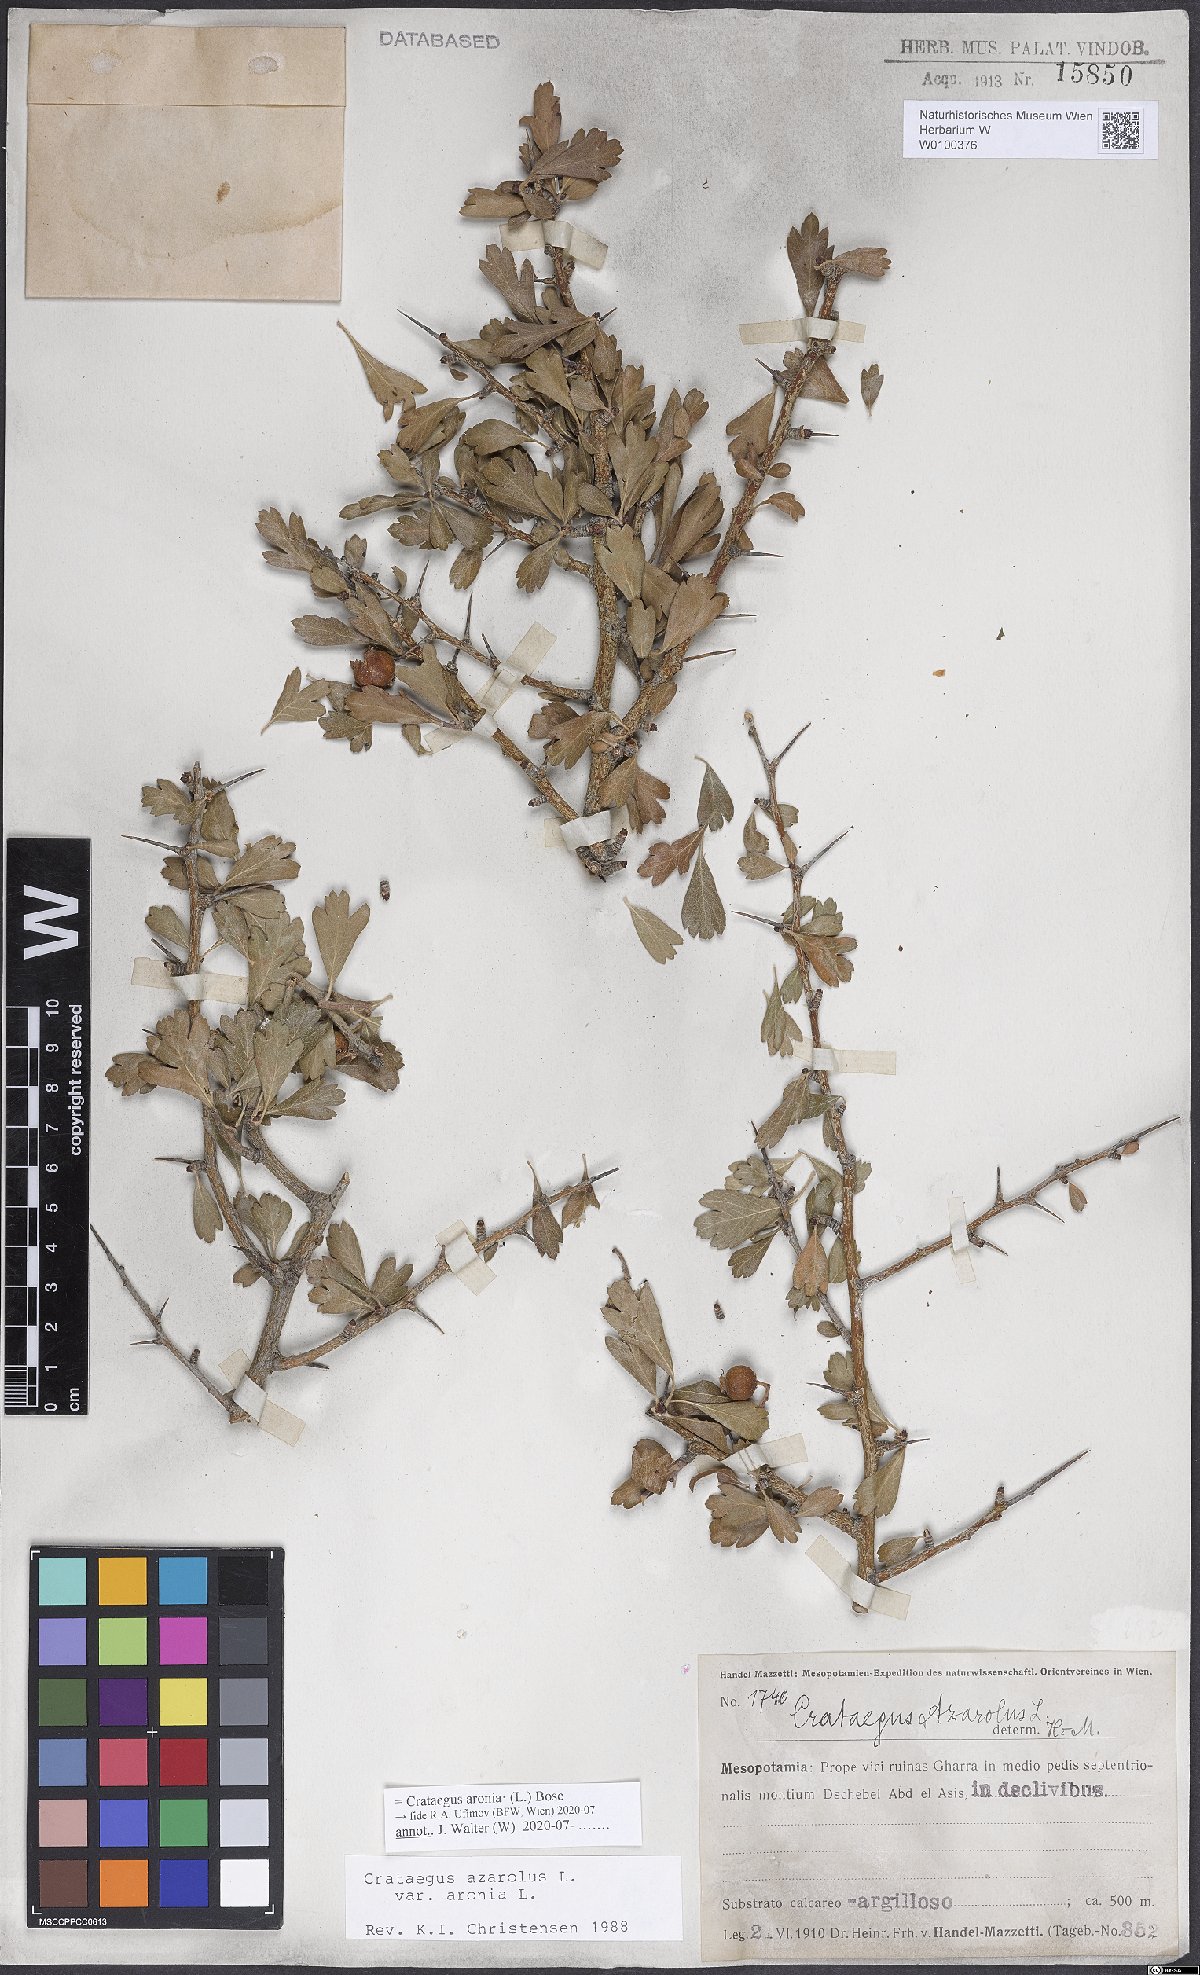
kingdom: Plantae
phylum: Tracheophyta
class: Magnoliopsida
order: Rosales
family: Rosaceae
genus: Crataegus
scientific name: Crataegus azarolus
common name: Azarole
